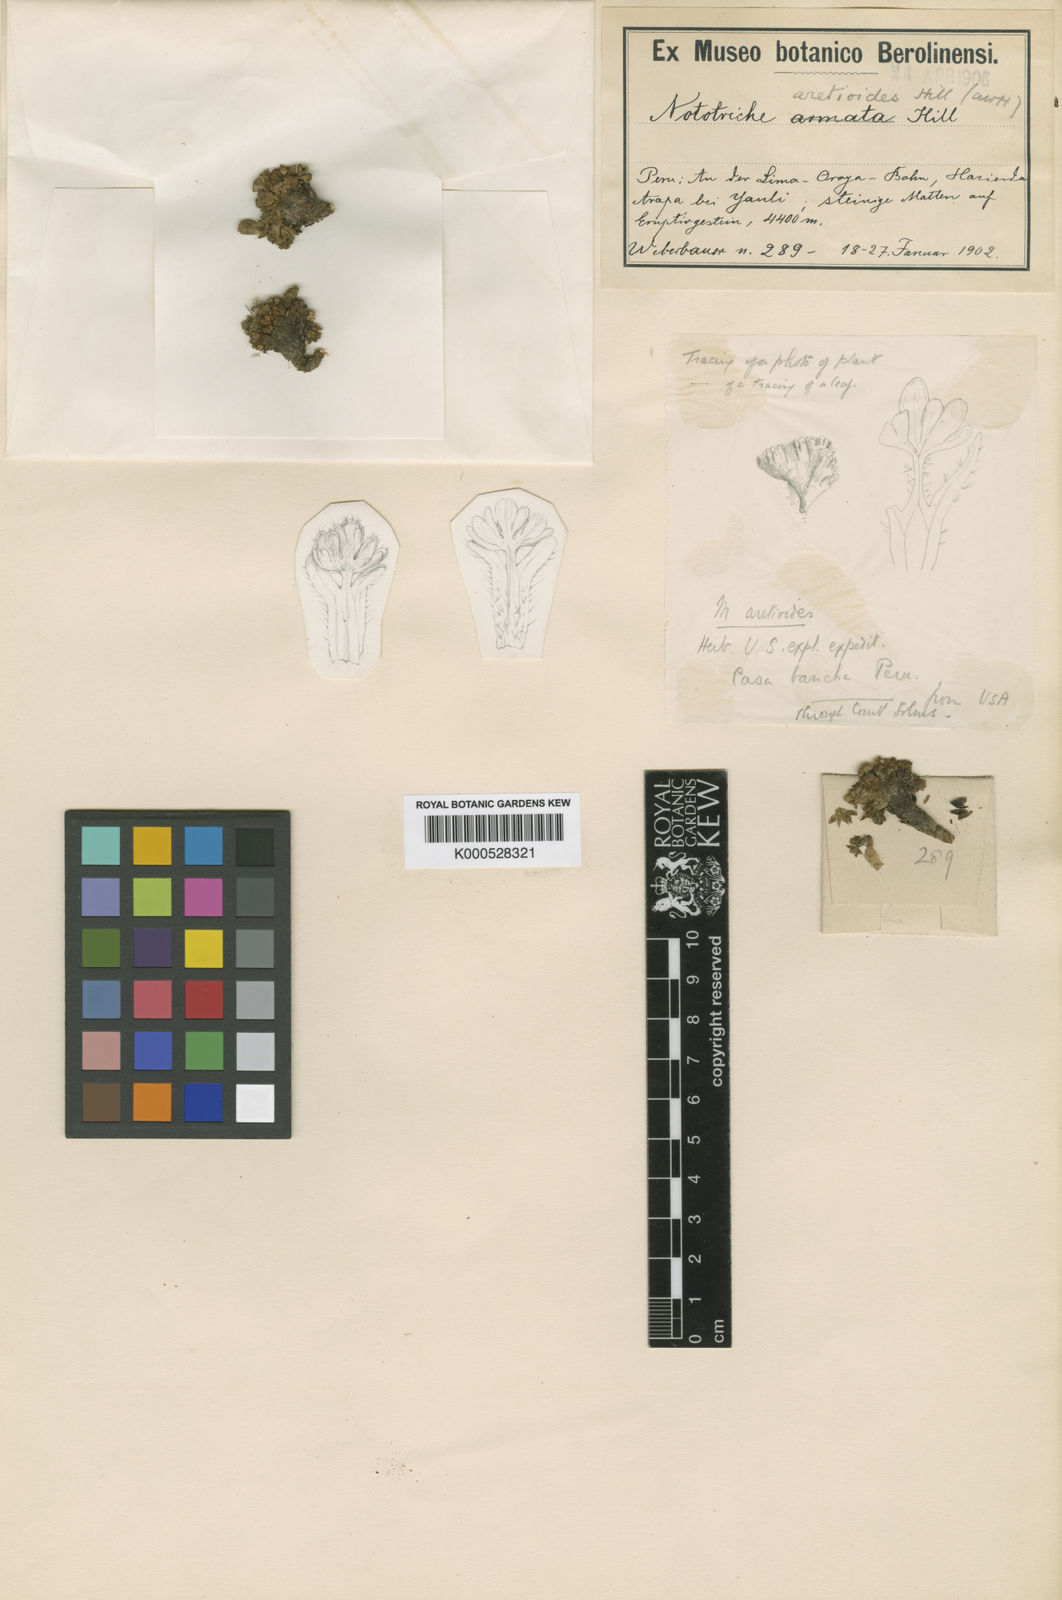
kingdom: Plantae
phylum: Tracheophyta
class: Magnoliopsida
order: Malvales
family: Malvaceae
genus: Nototriche
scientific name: Nototriche aretioides
